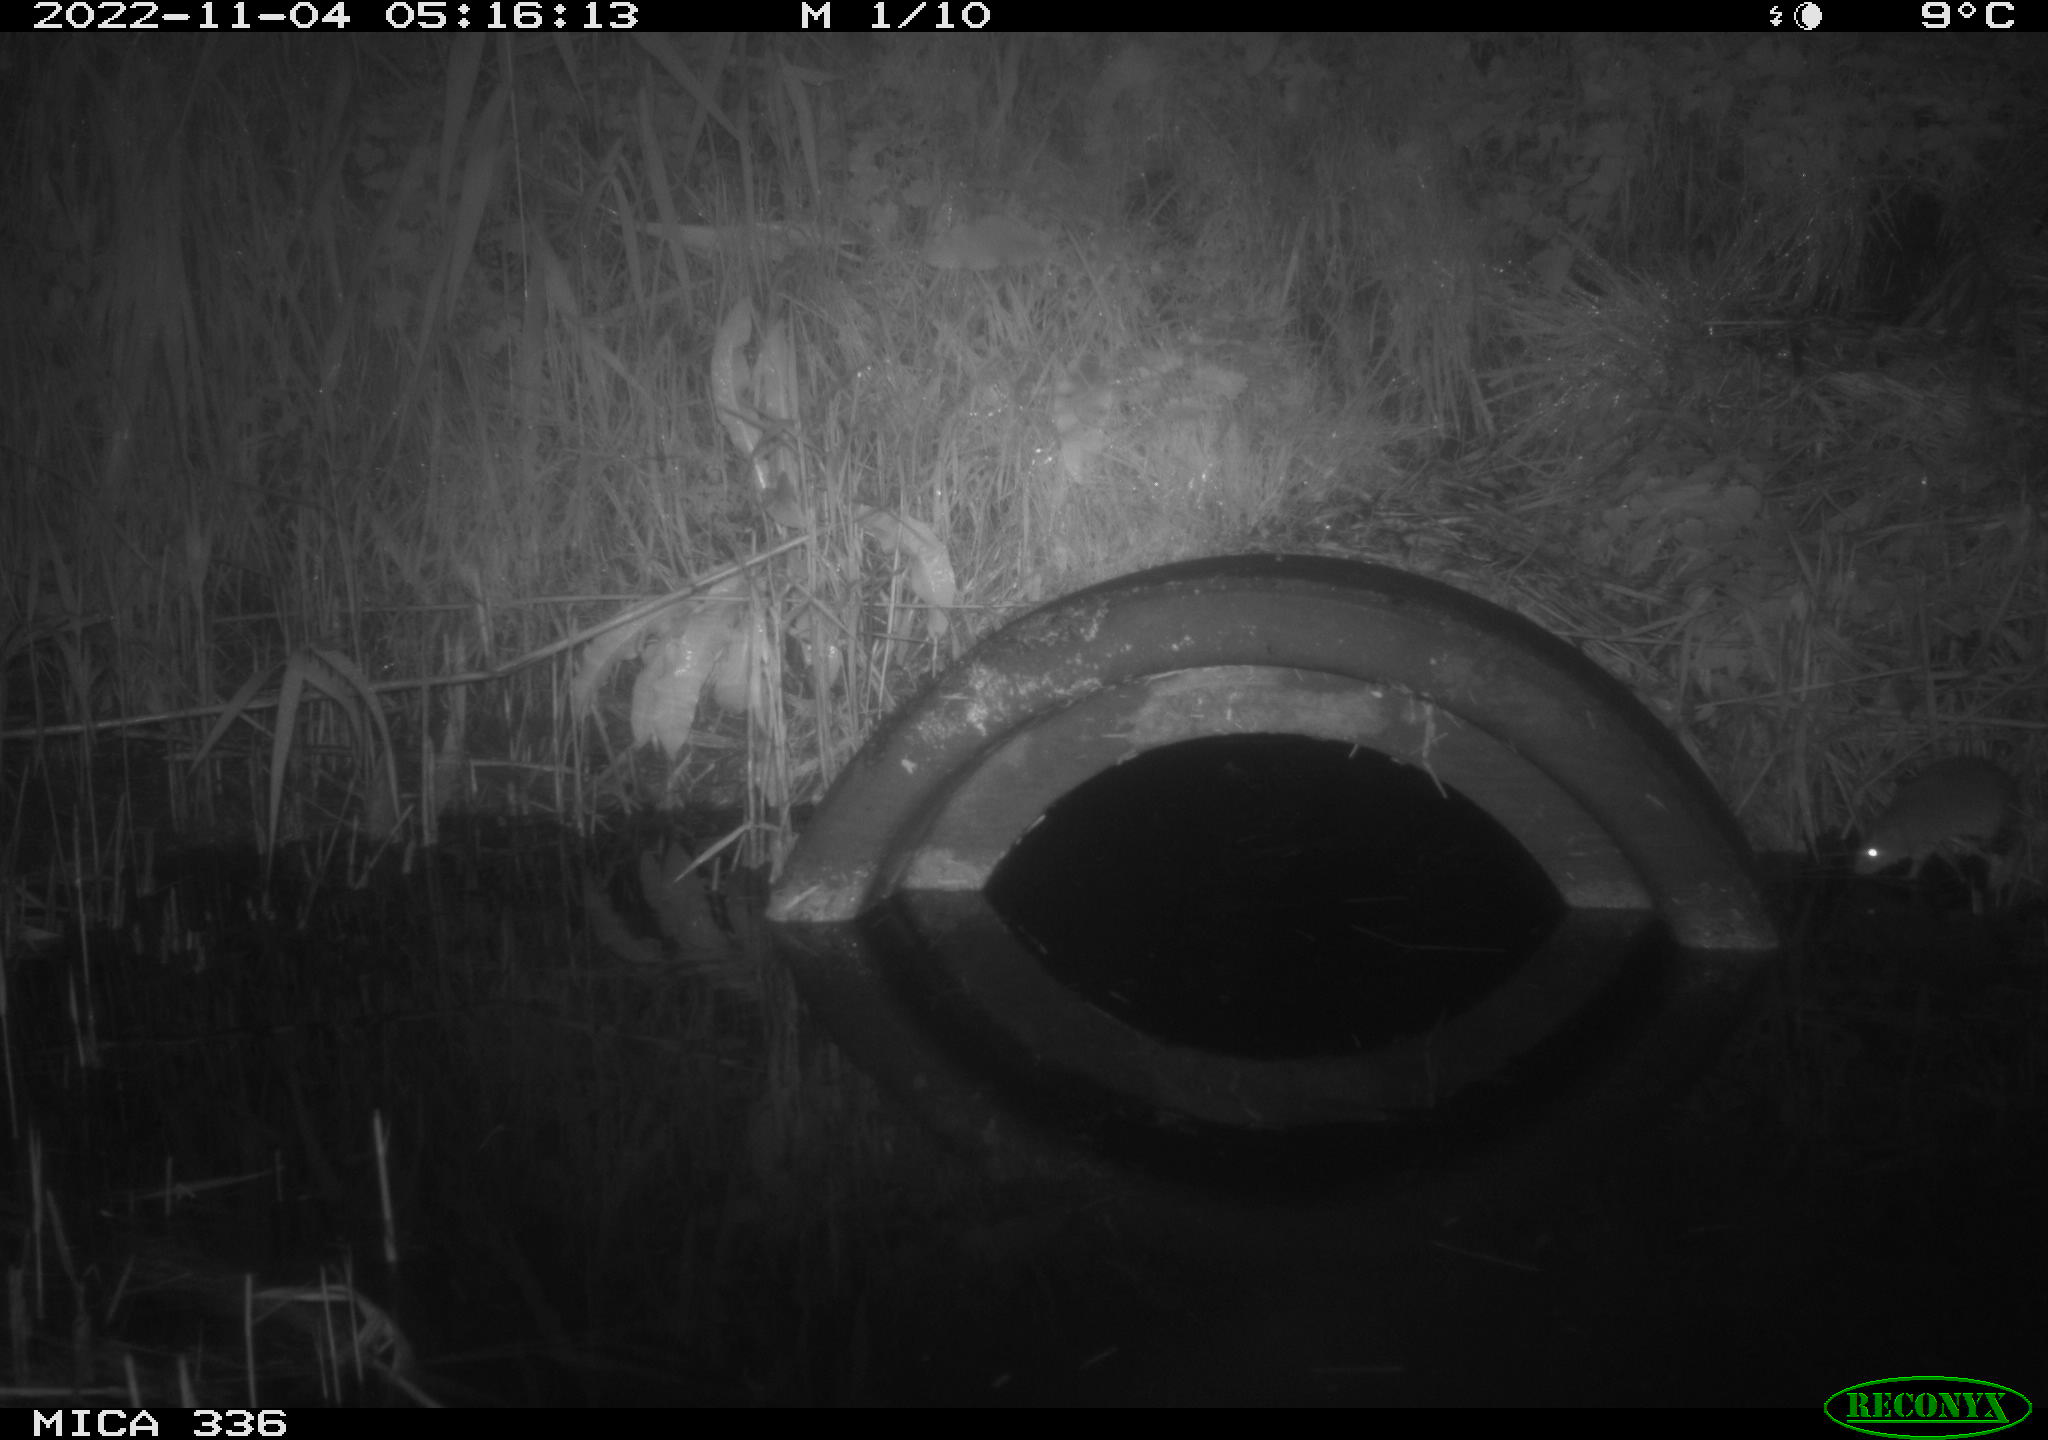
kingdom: Animalia
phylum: Chordata
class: Mammalia
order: Rodentia
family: Muridae
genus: Rattus
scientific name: Rattus norvegicus
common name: Brown rat
